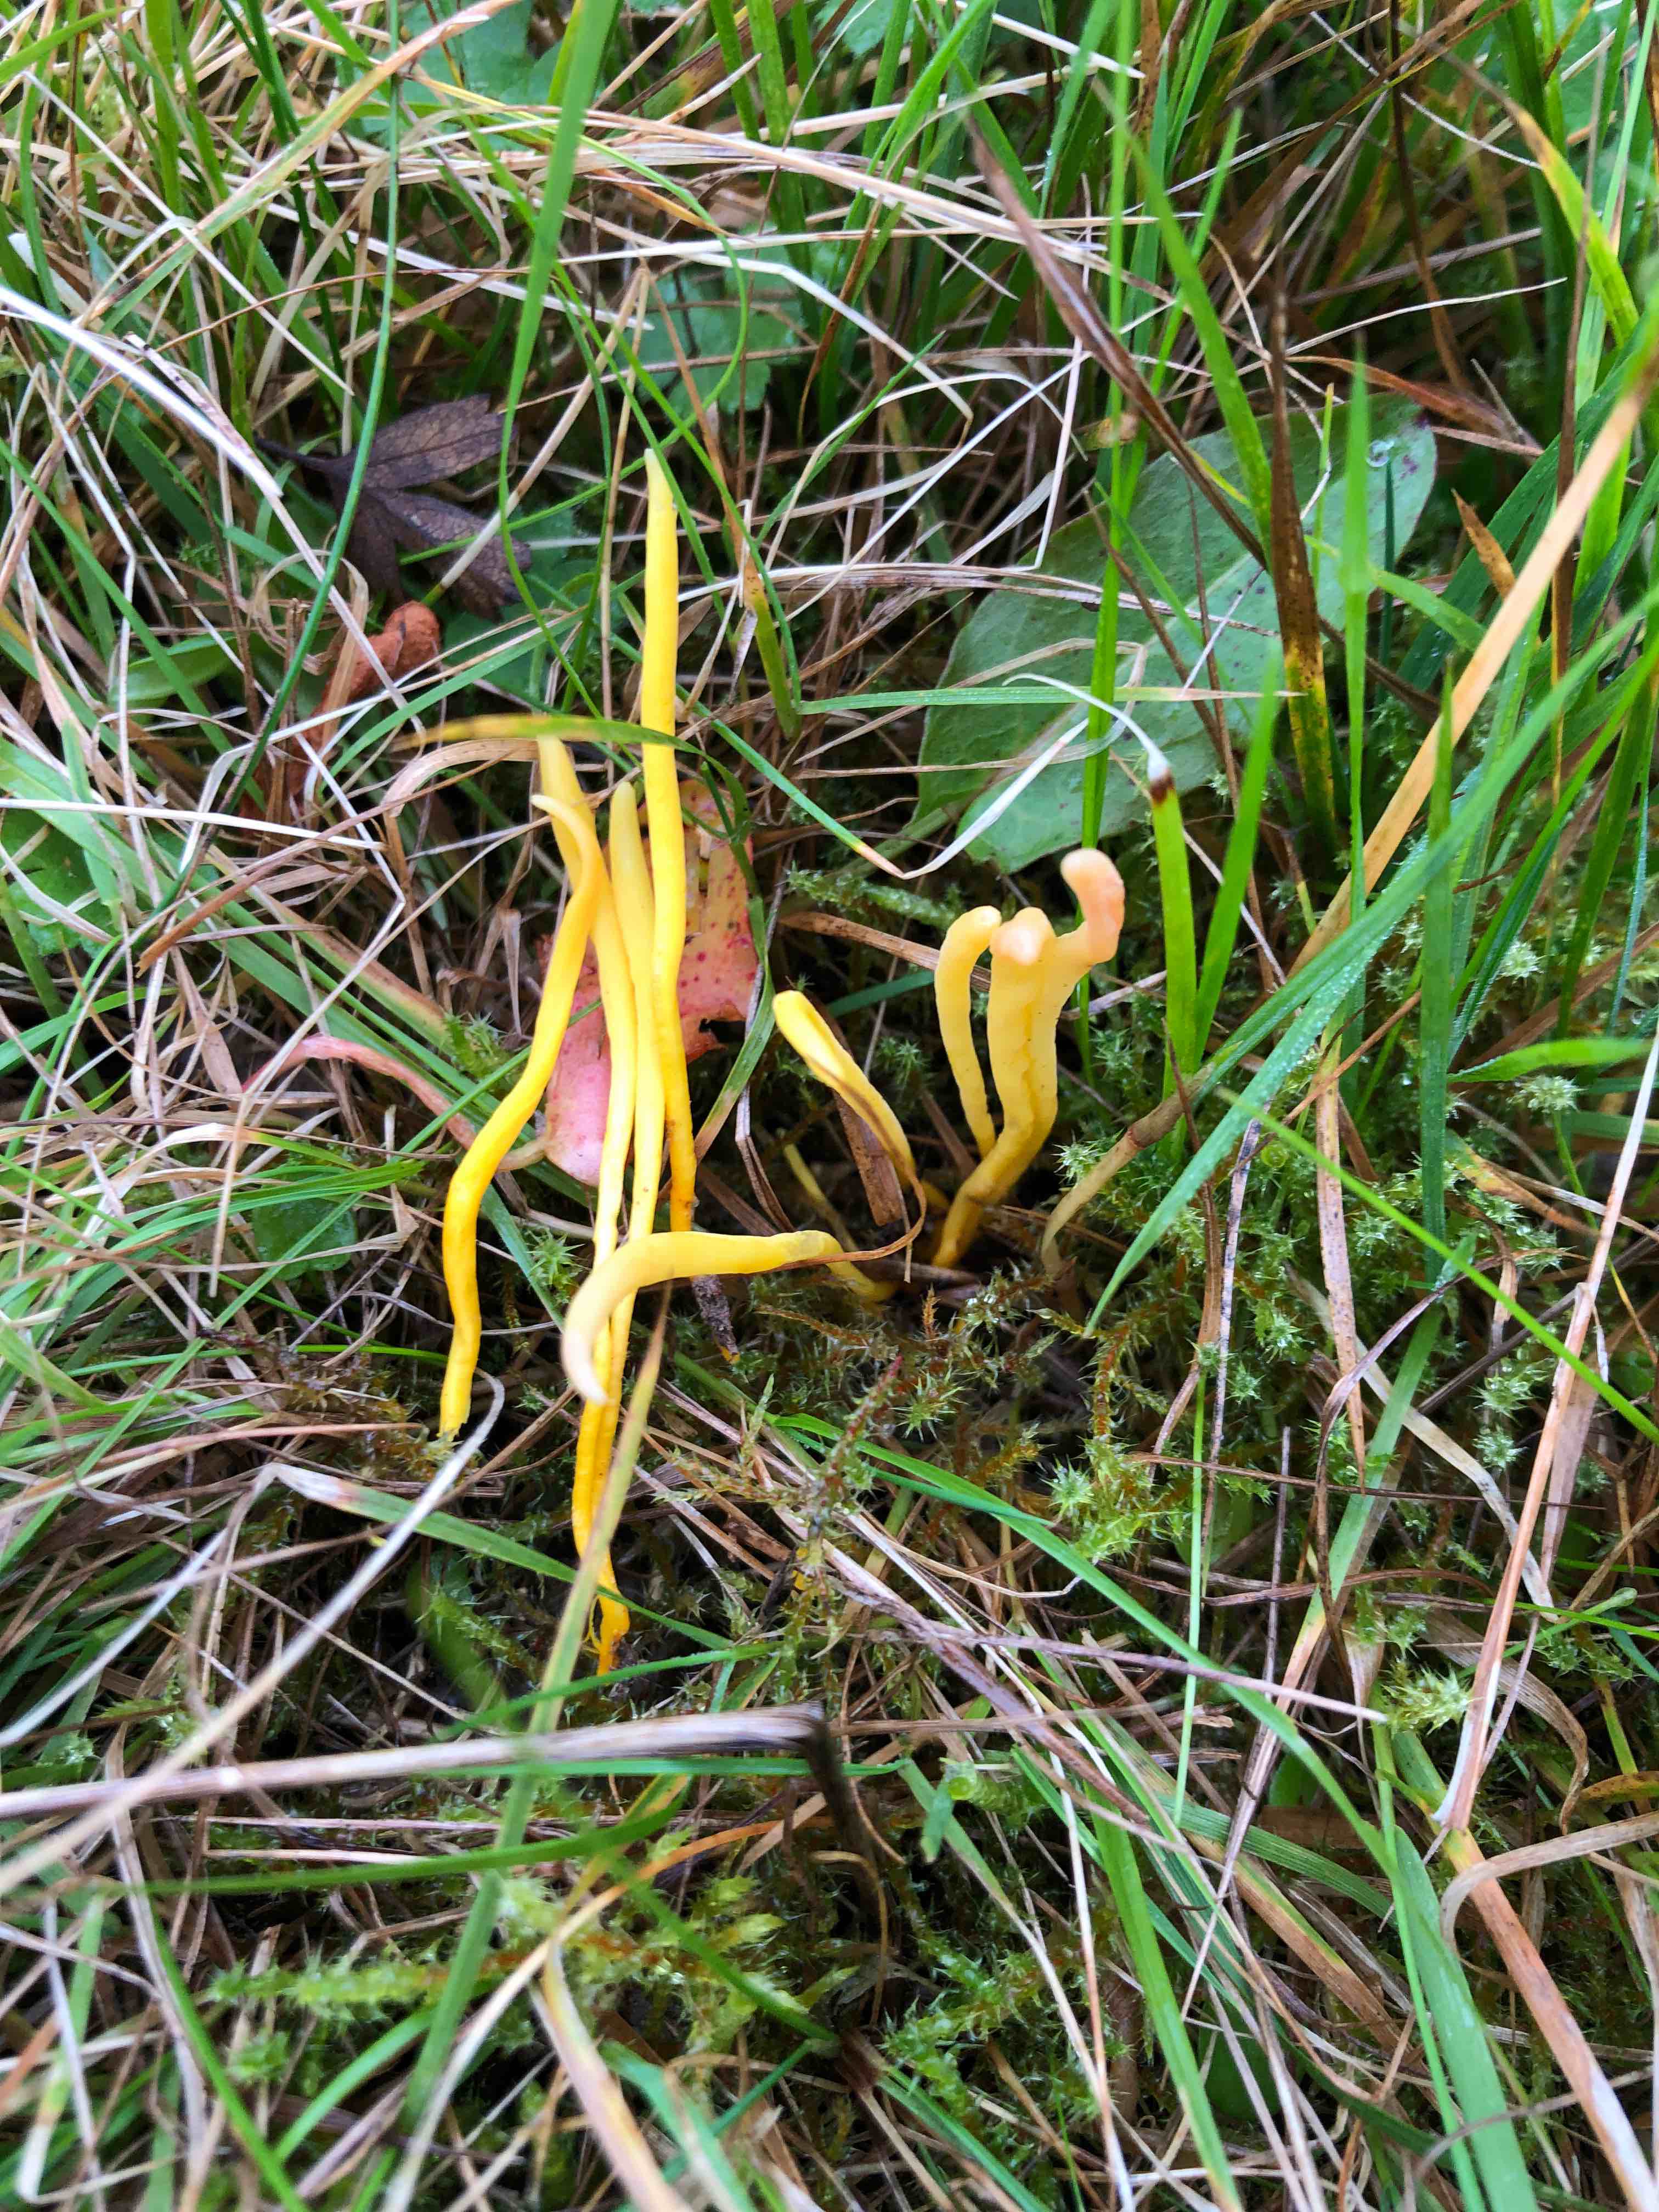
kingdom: Fungi
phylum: Basidiomycota
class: Agaricomycetes
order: Agaricales
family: Clavariaceae
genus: Clavulinopsis
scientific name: Clavulinopsis laeticolor
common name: flamme-køllesvamp
